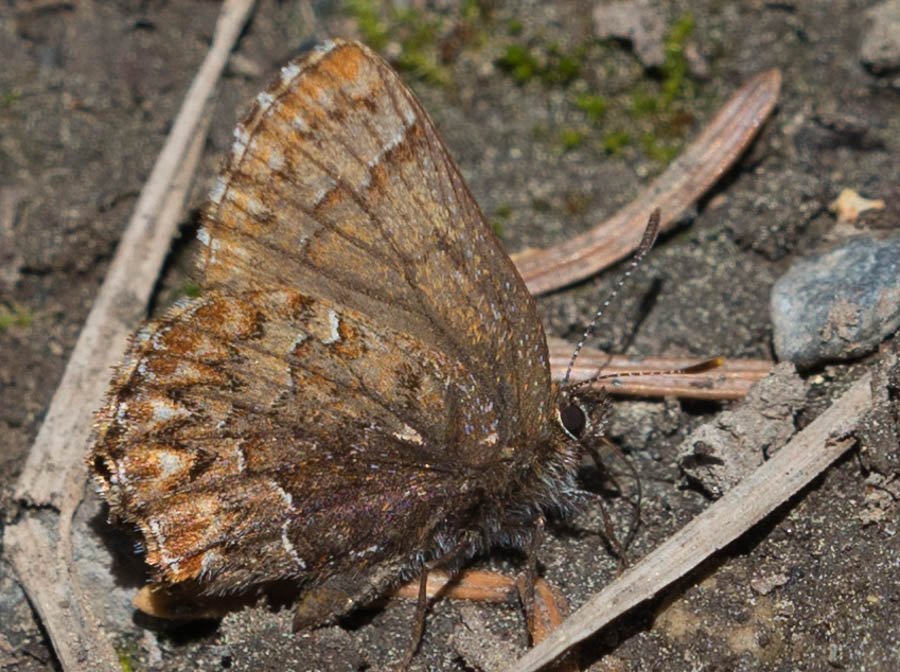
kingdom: Animalia
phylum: Arthropoda
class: Insecta
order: Lepidoptera
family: Lycaenidae
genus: Incisalia
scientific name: Incisalia eryphon
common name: Western Pine Elfin
